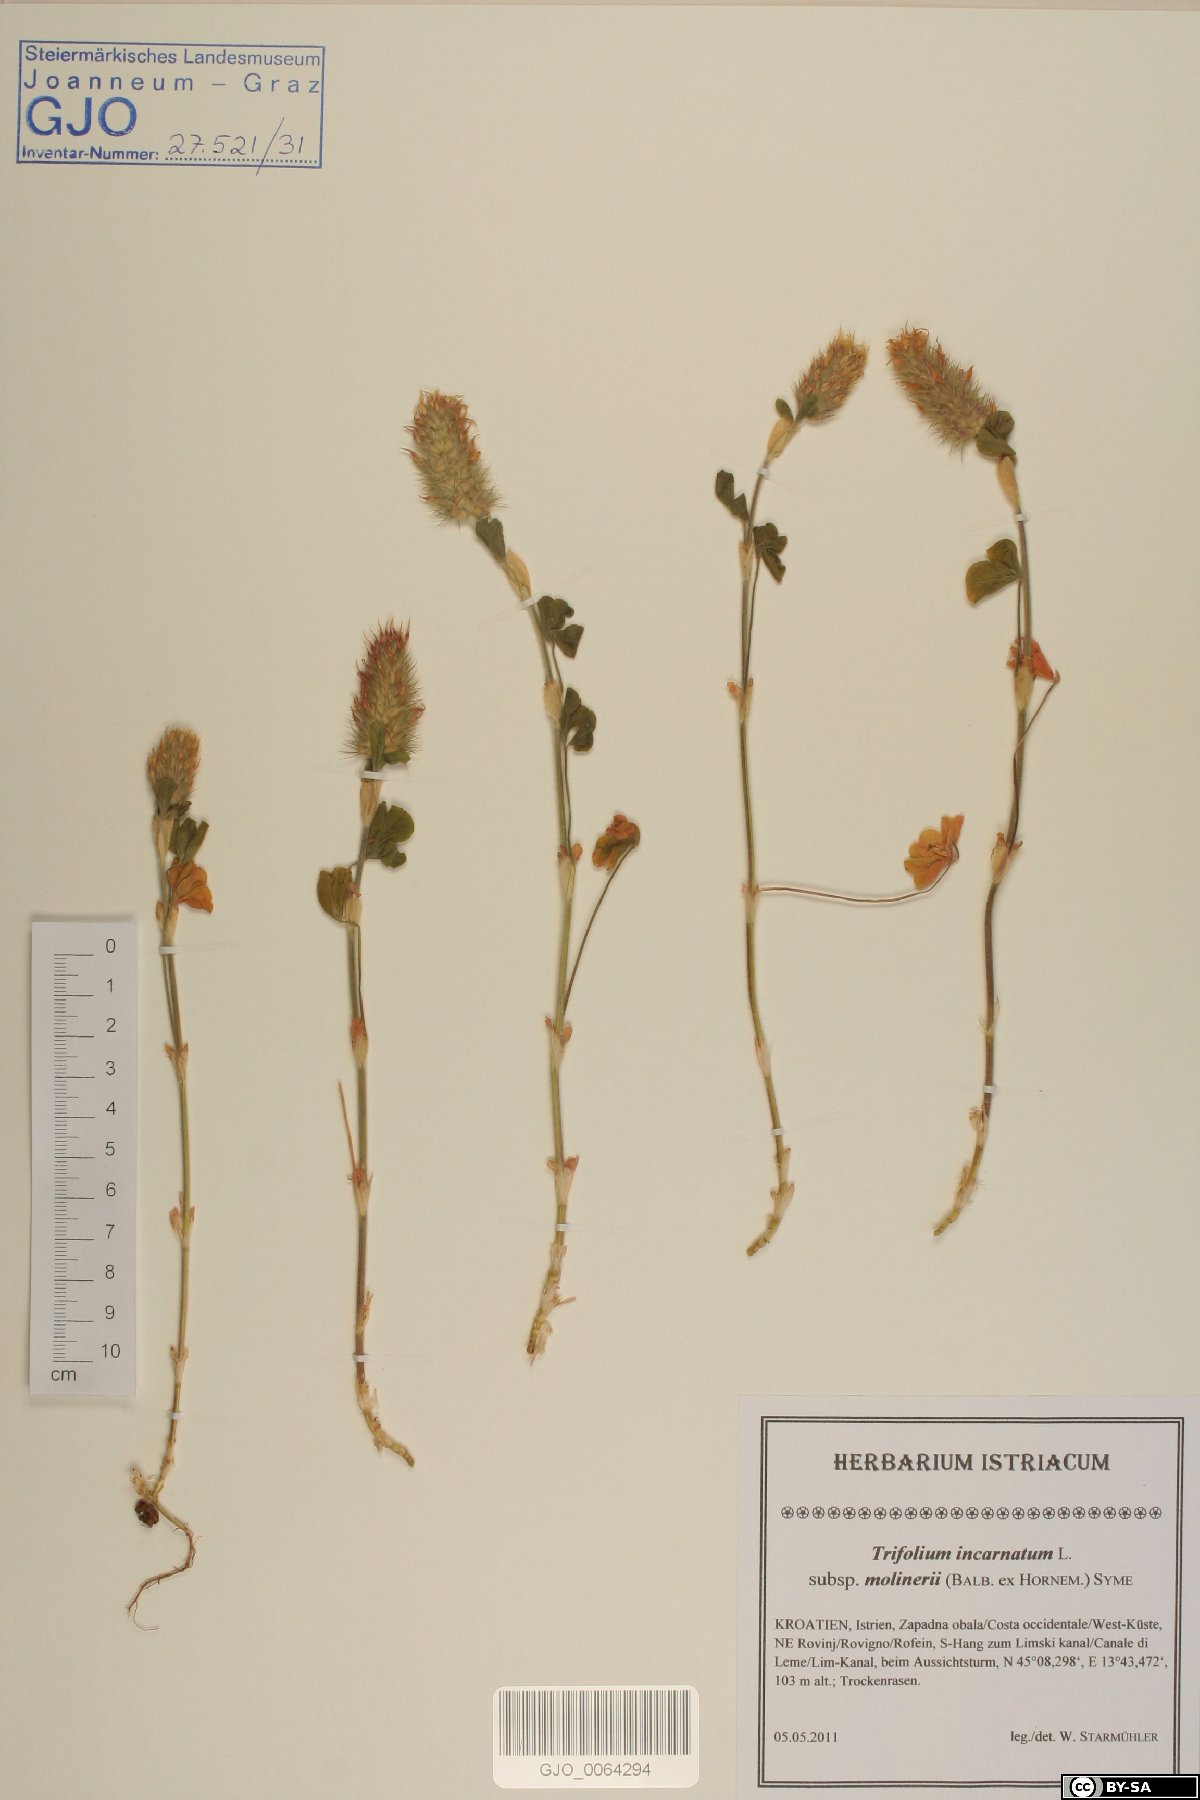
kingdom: Plantae
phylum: Tracheophyta
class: Magnoliopsida
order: Fabales
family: Fabaceae
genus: Trifolium
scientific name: Trifolium incarnatum
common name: Crimson clover
